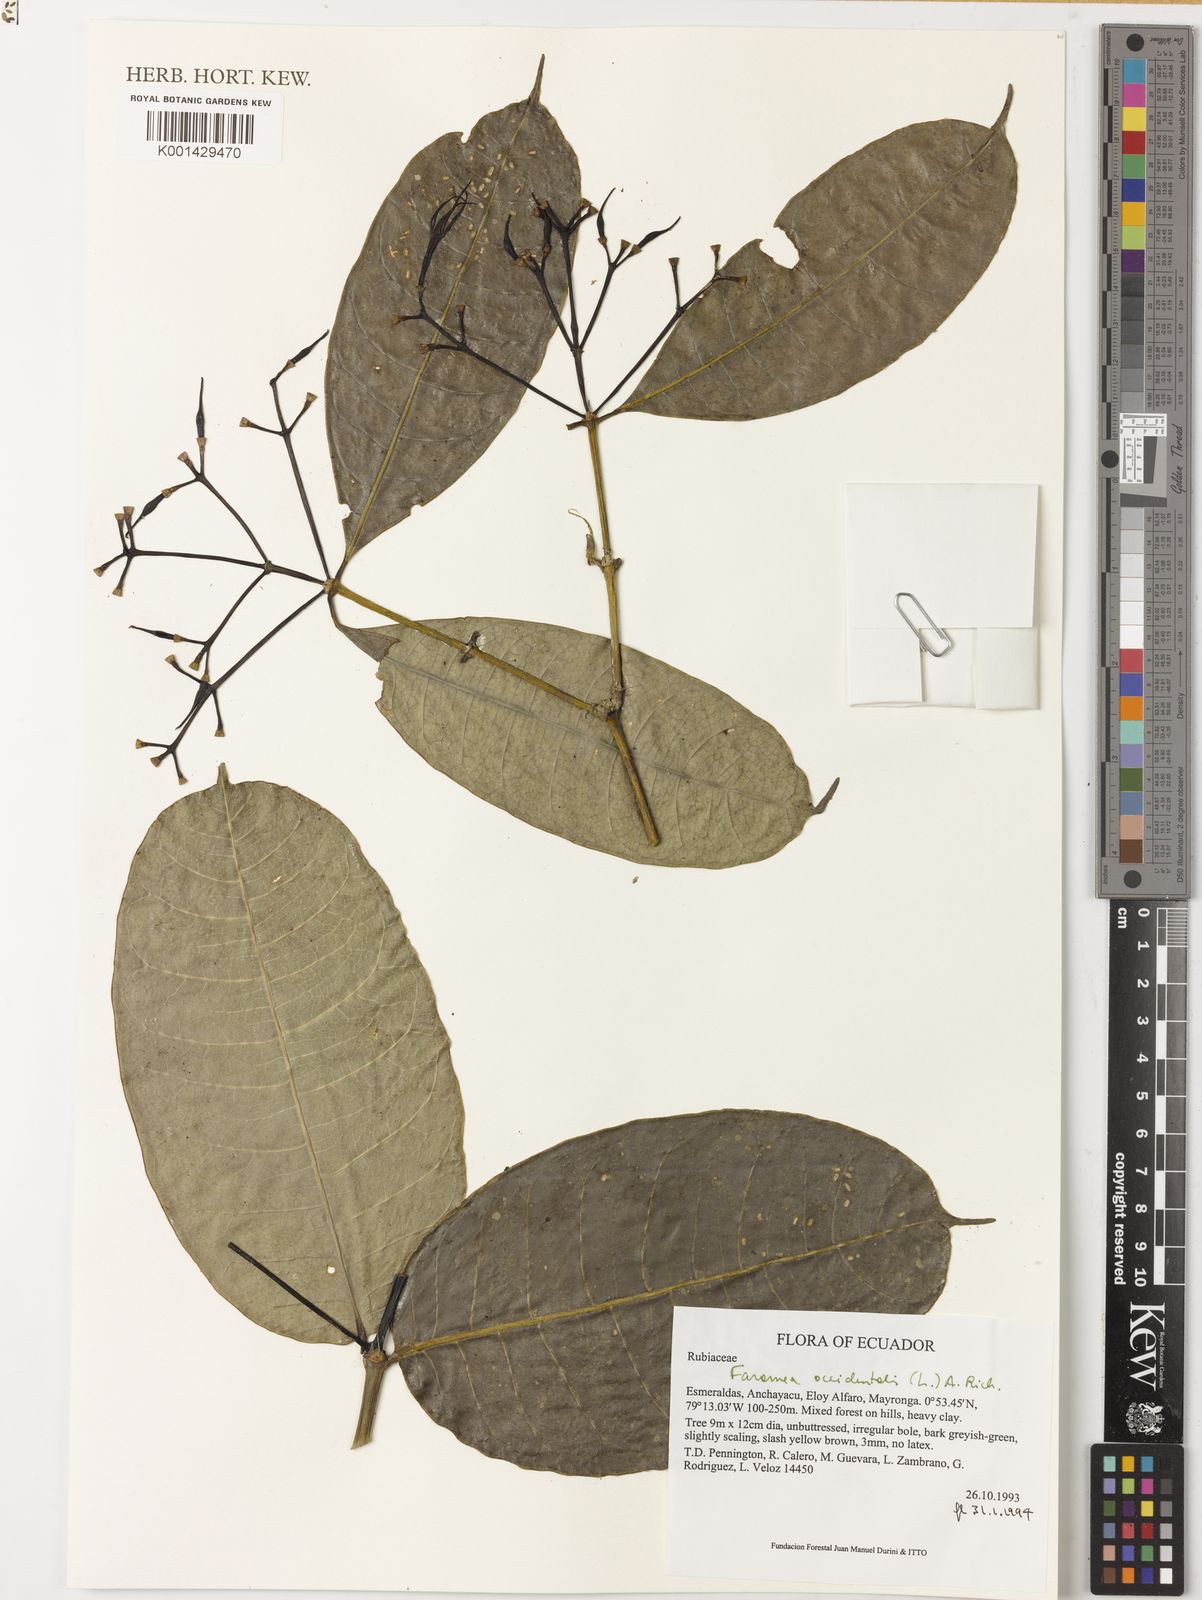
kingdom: Plantae
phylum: Tracheophyta
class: Magnoliopsida
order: Gentianales
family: Rubiaceae
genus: Faramea
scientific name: Faramea occidentalis
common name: False coffee
